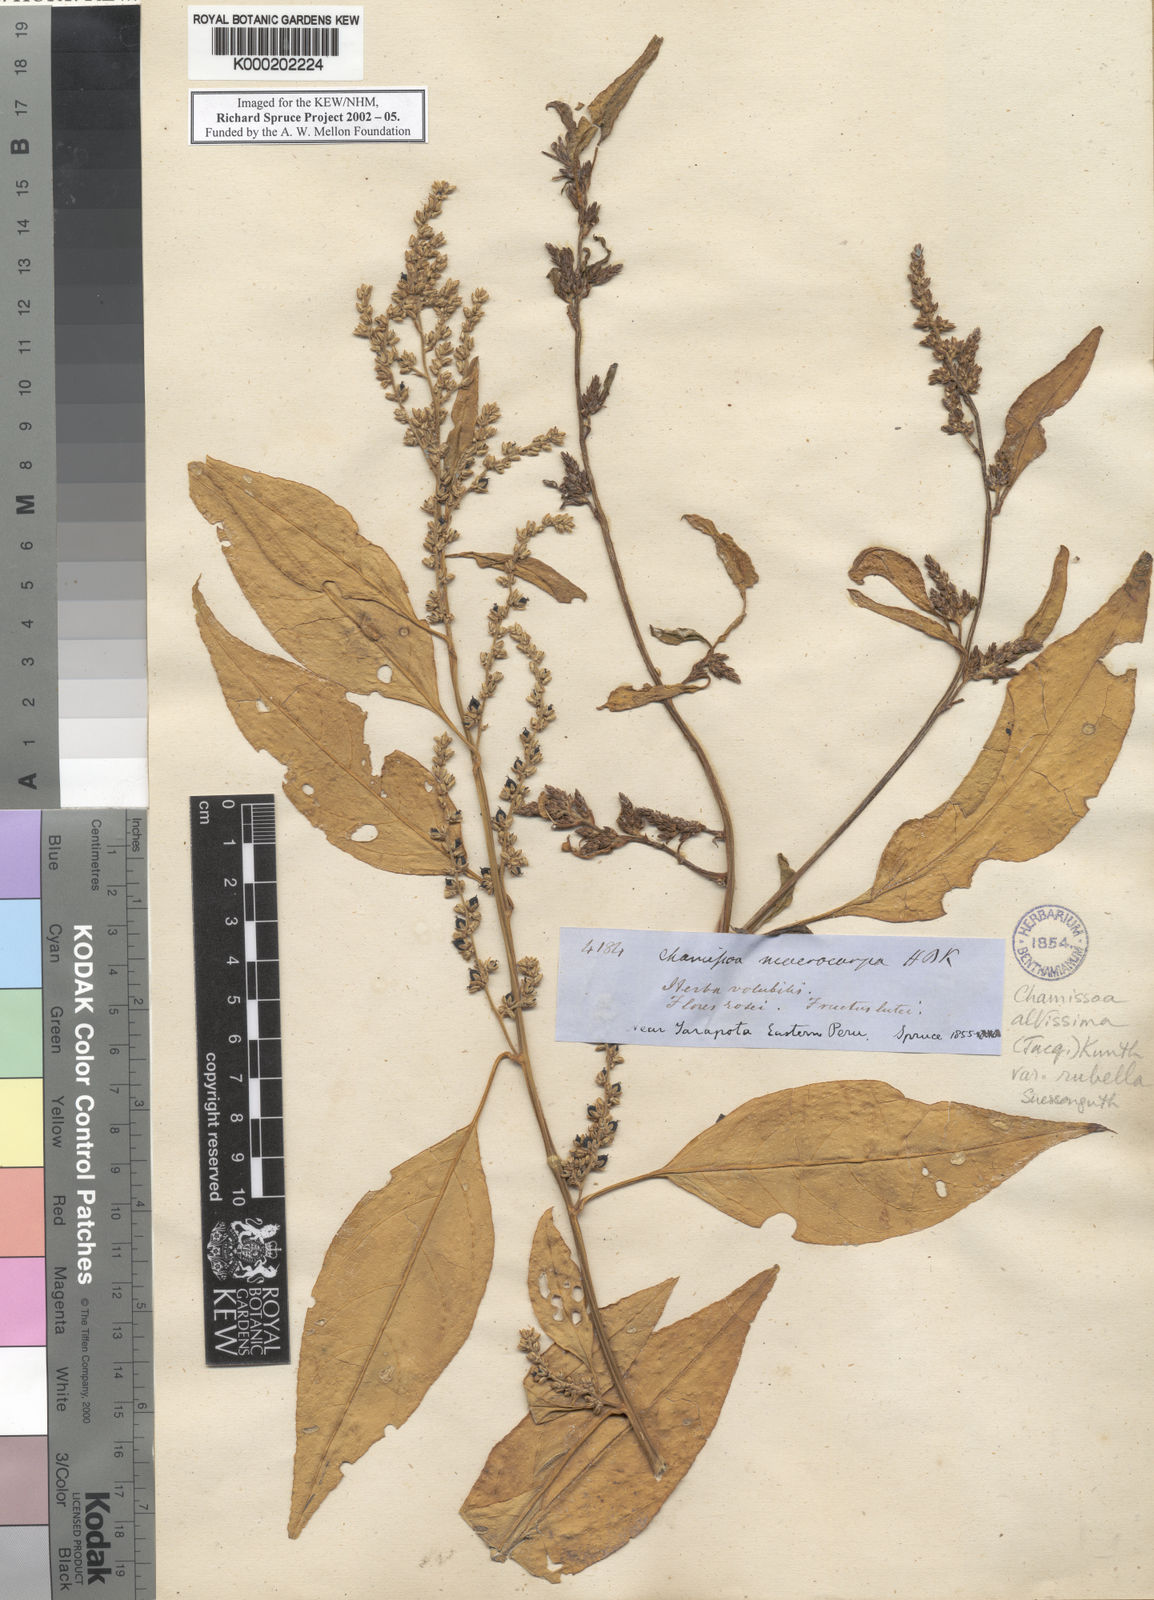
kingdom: Plantae
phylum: Tracheophyta
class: Magnoliopsida
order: Caryophyllales
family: Amaranthaceae
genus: Chamissoa
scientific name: Chamissoa altissima
